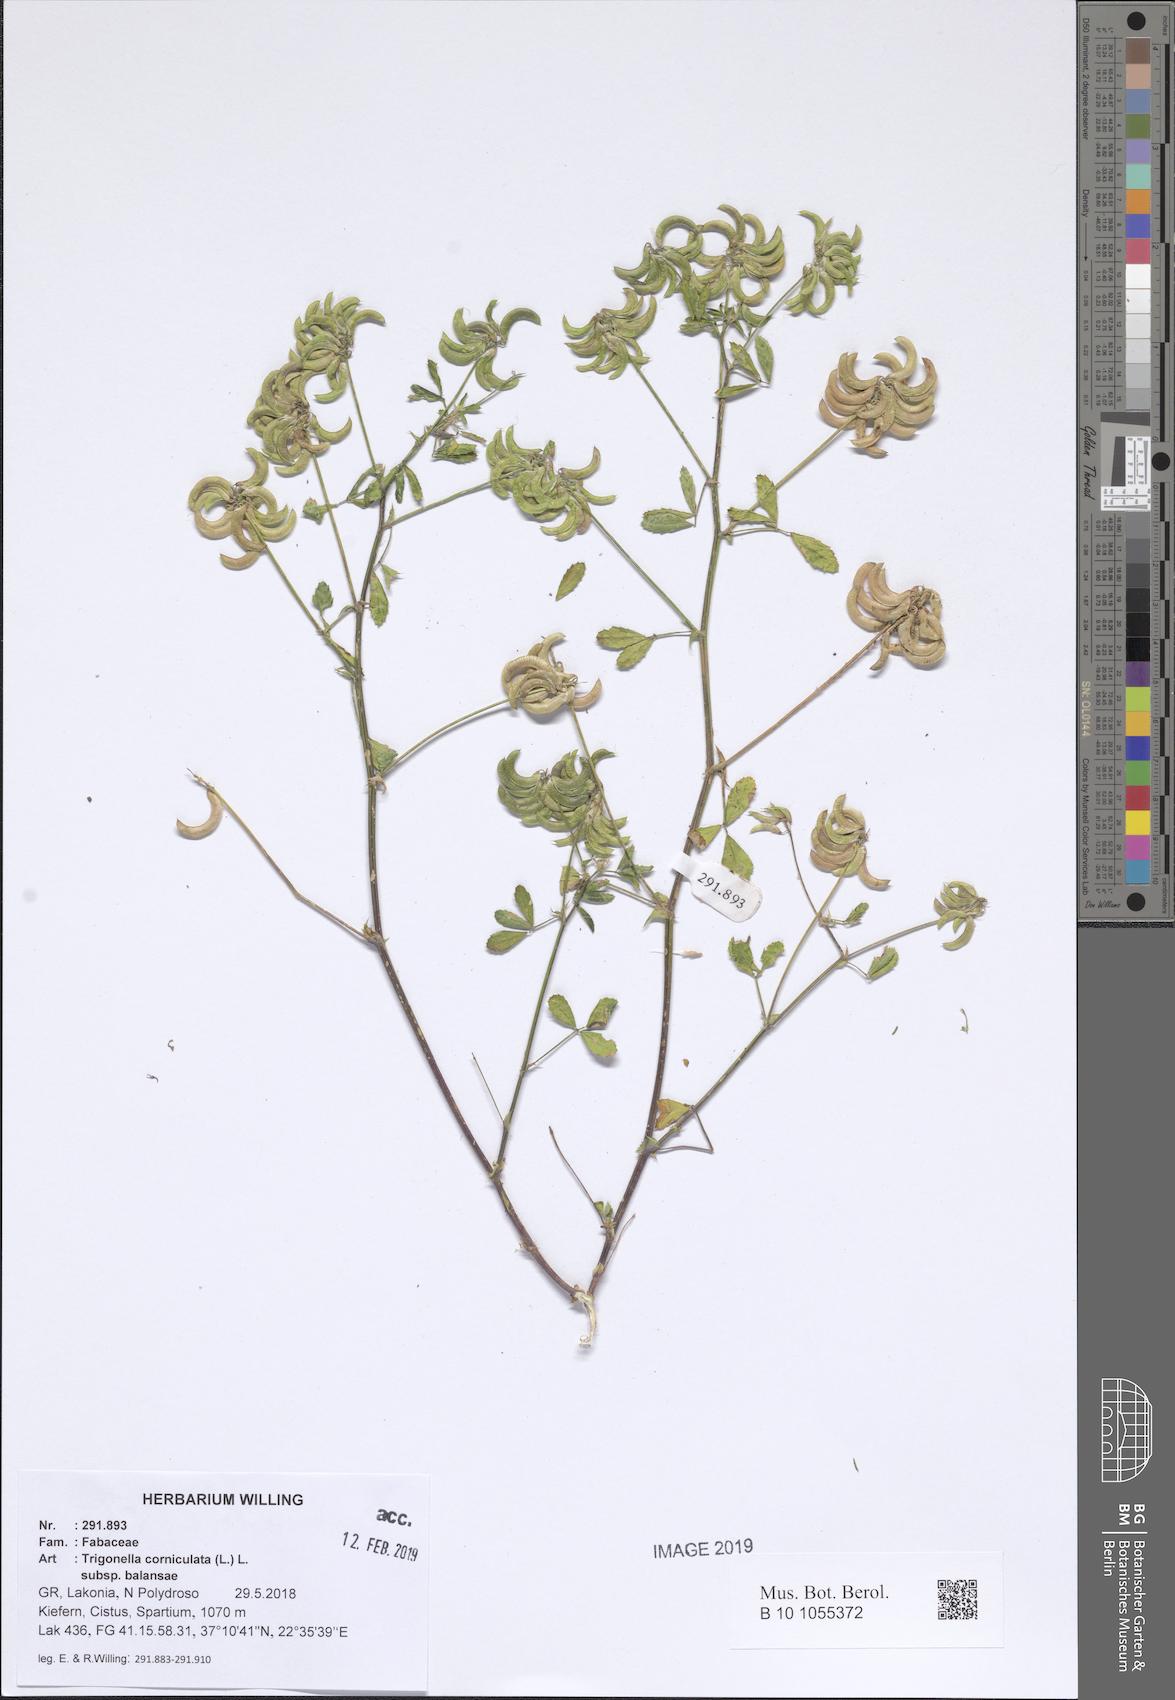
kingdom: Plantae
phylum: Tracheophyta
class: Magnoliopsida
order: Fabales
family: Fabaceae
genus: Trigonella
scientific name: Trigonella balansae
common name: Sickle-fruited fenugreek
